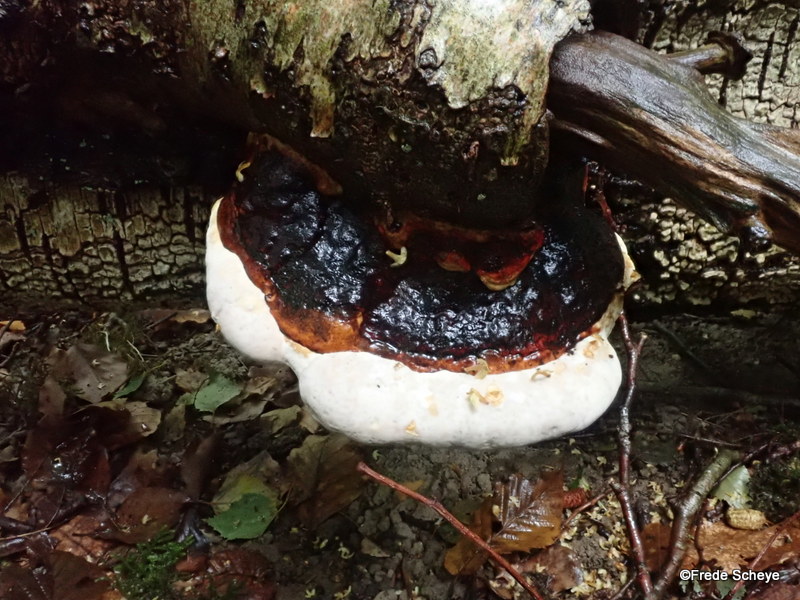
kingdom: Fungi
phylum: Basidiomycota
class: Agaricomycetes
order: Polyporales
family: Fomitopsidaceae
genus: Fomitopsis
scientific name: Fomitopsis pinicola
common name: randbæltet hovporesvamp
